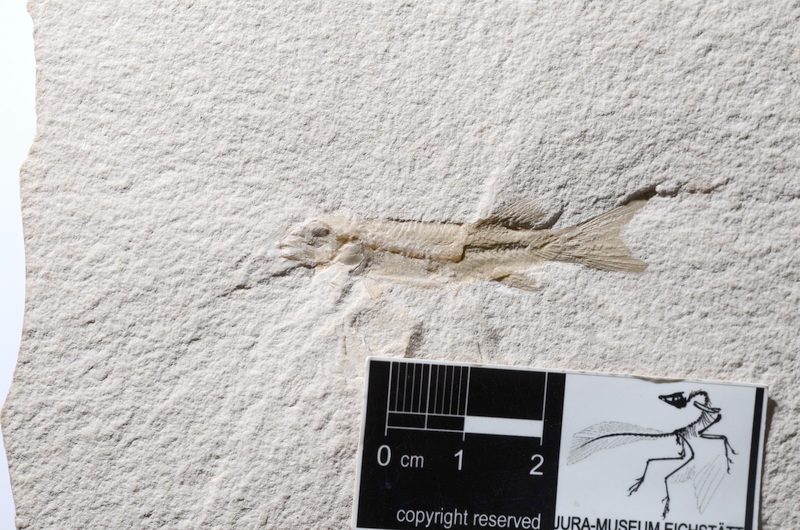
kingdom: Animalia
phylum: Chordata
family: Macrosemiidae
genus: Notagogus
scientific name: Notagogus
